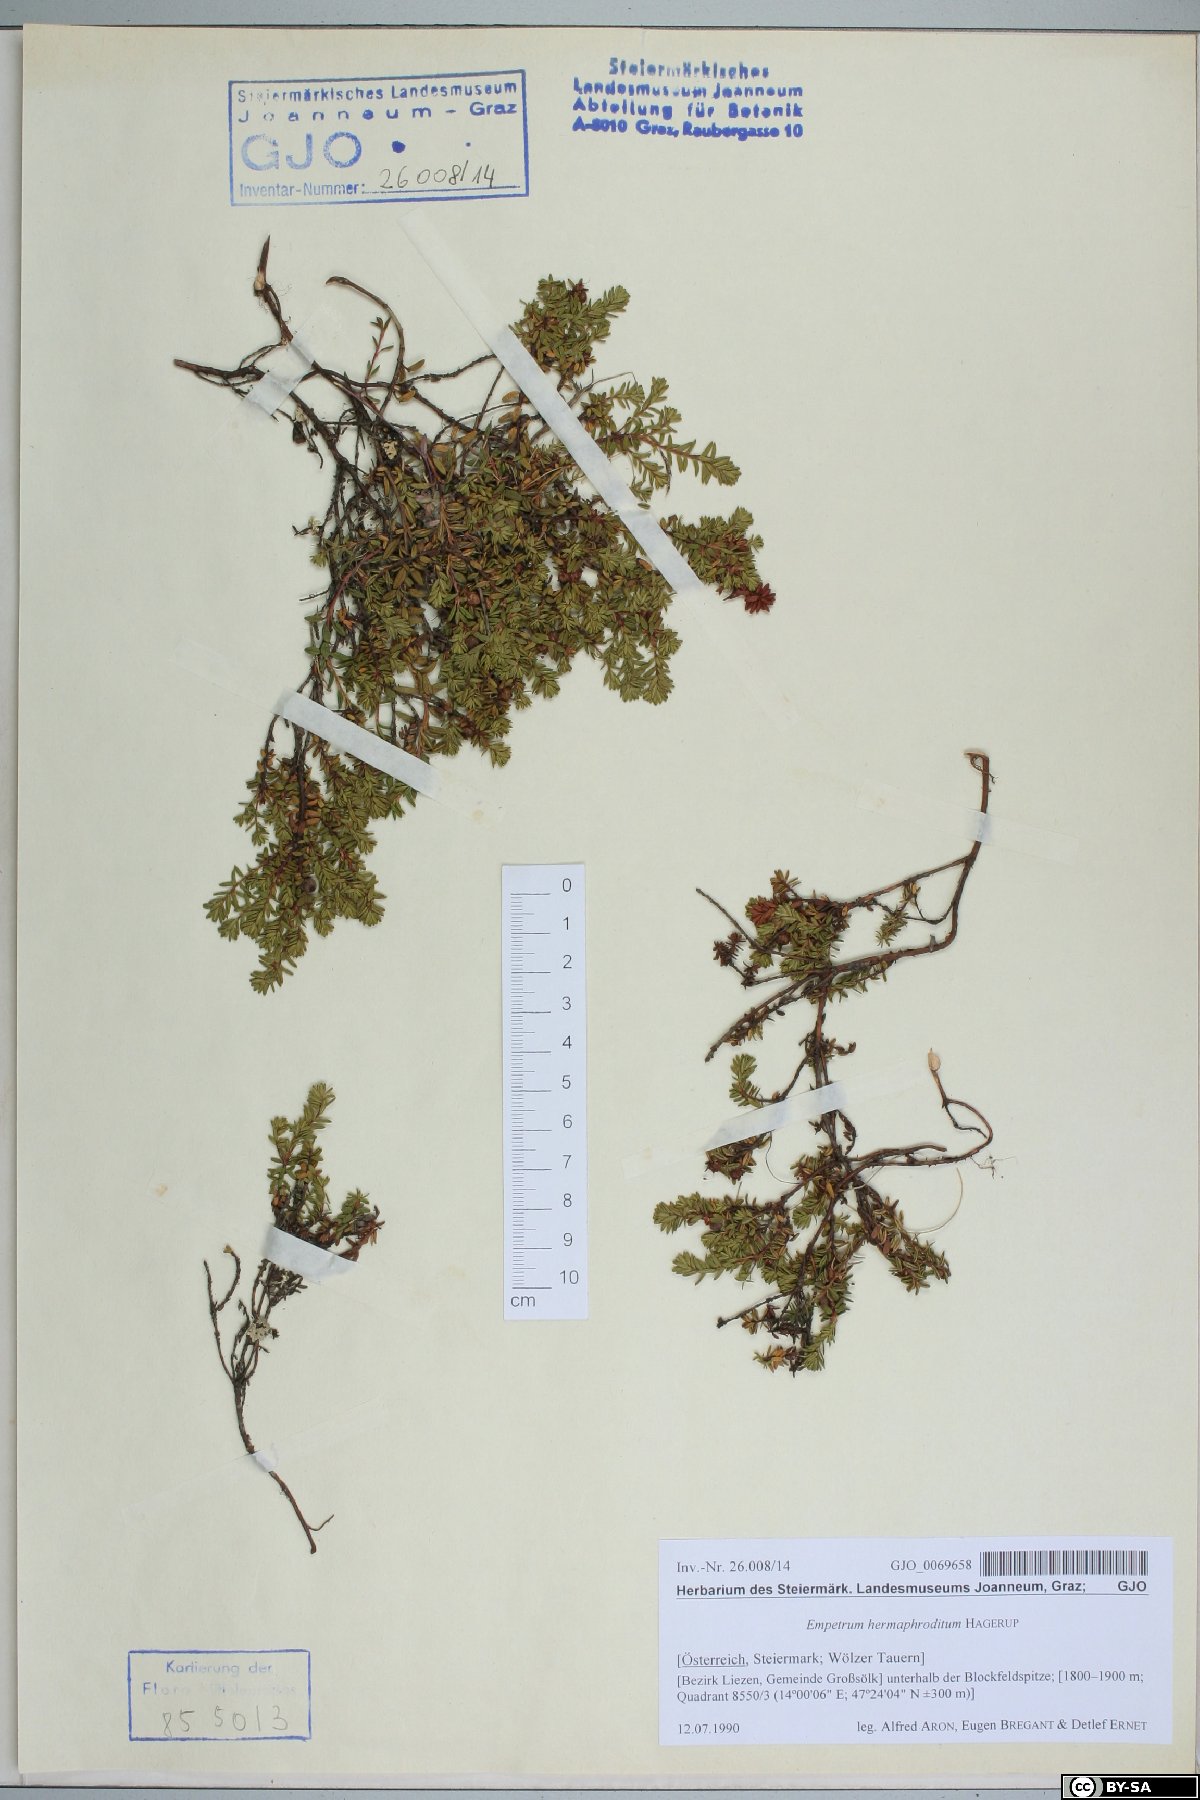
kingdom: Plantae
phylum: Tracheophyta
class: Magnoliopsida
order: Ericales
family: Ericaceae
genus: Empetrum
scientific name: Empetrum hermaphroditum
